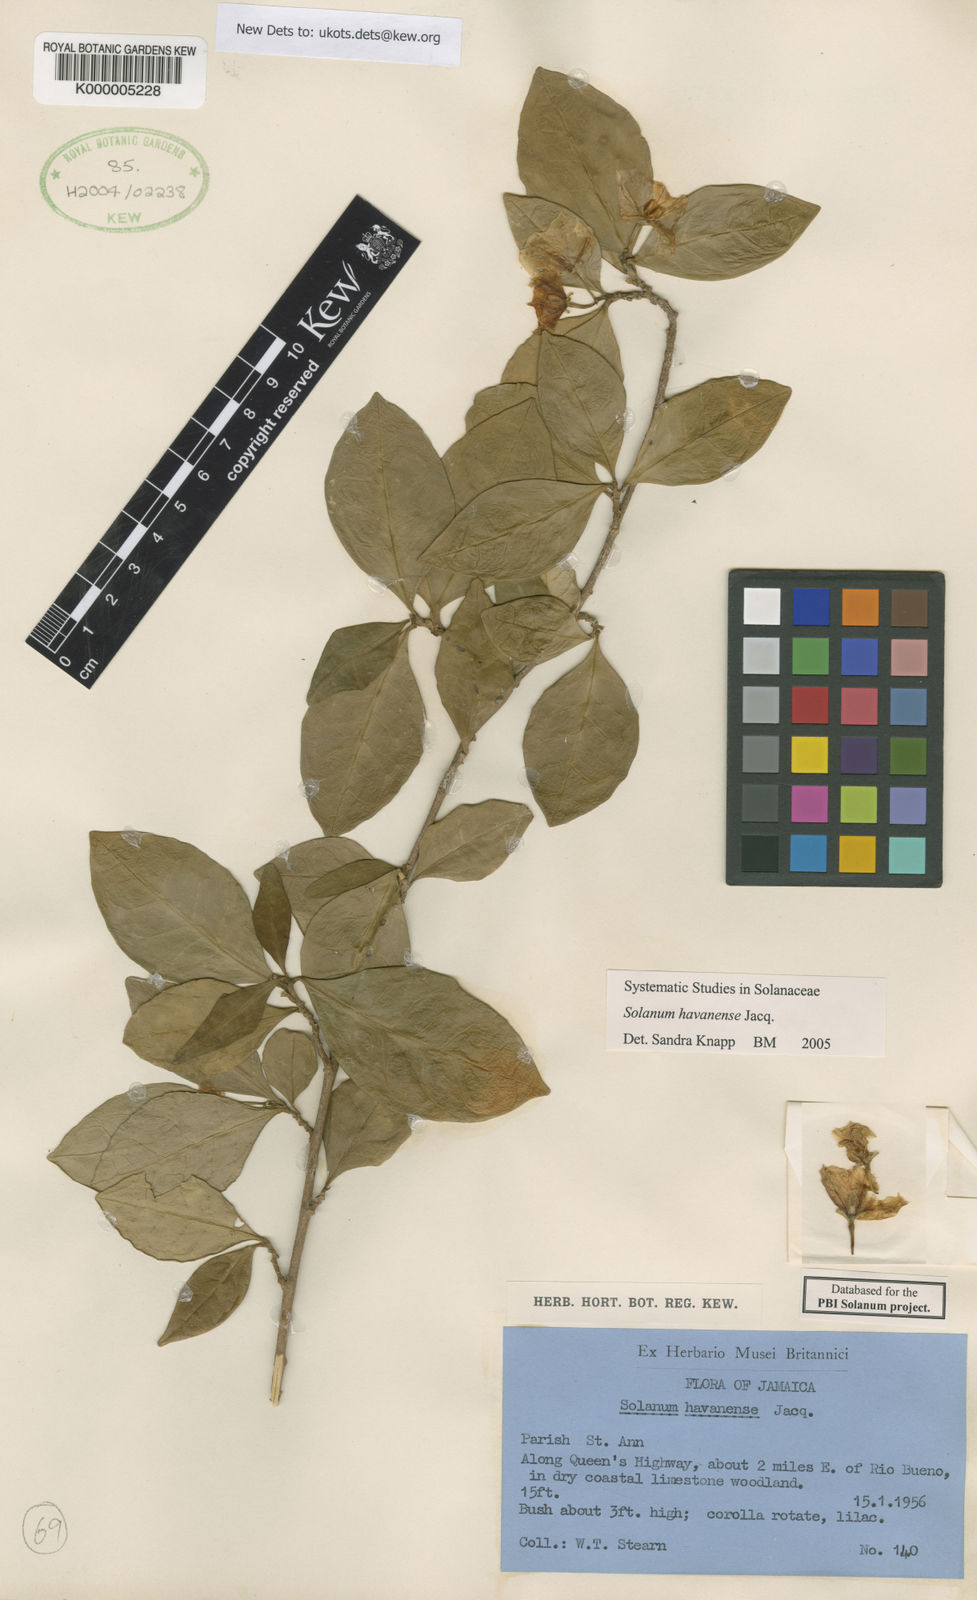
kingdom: Plantae
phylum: Tracheophyta
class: Magnoliopsida
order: Solanales
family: Solanaceae
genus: Solanum
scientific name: Solanum havanense
